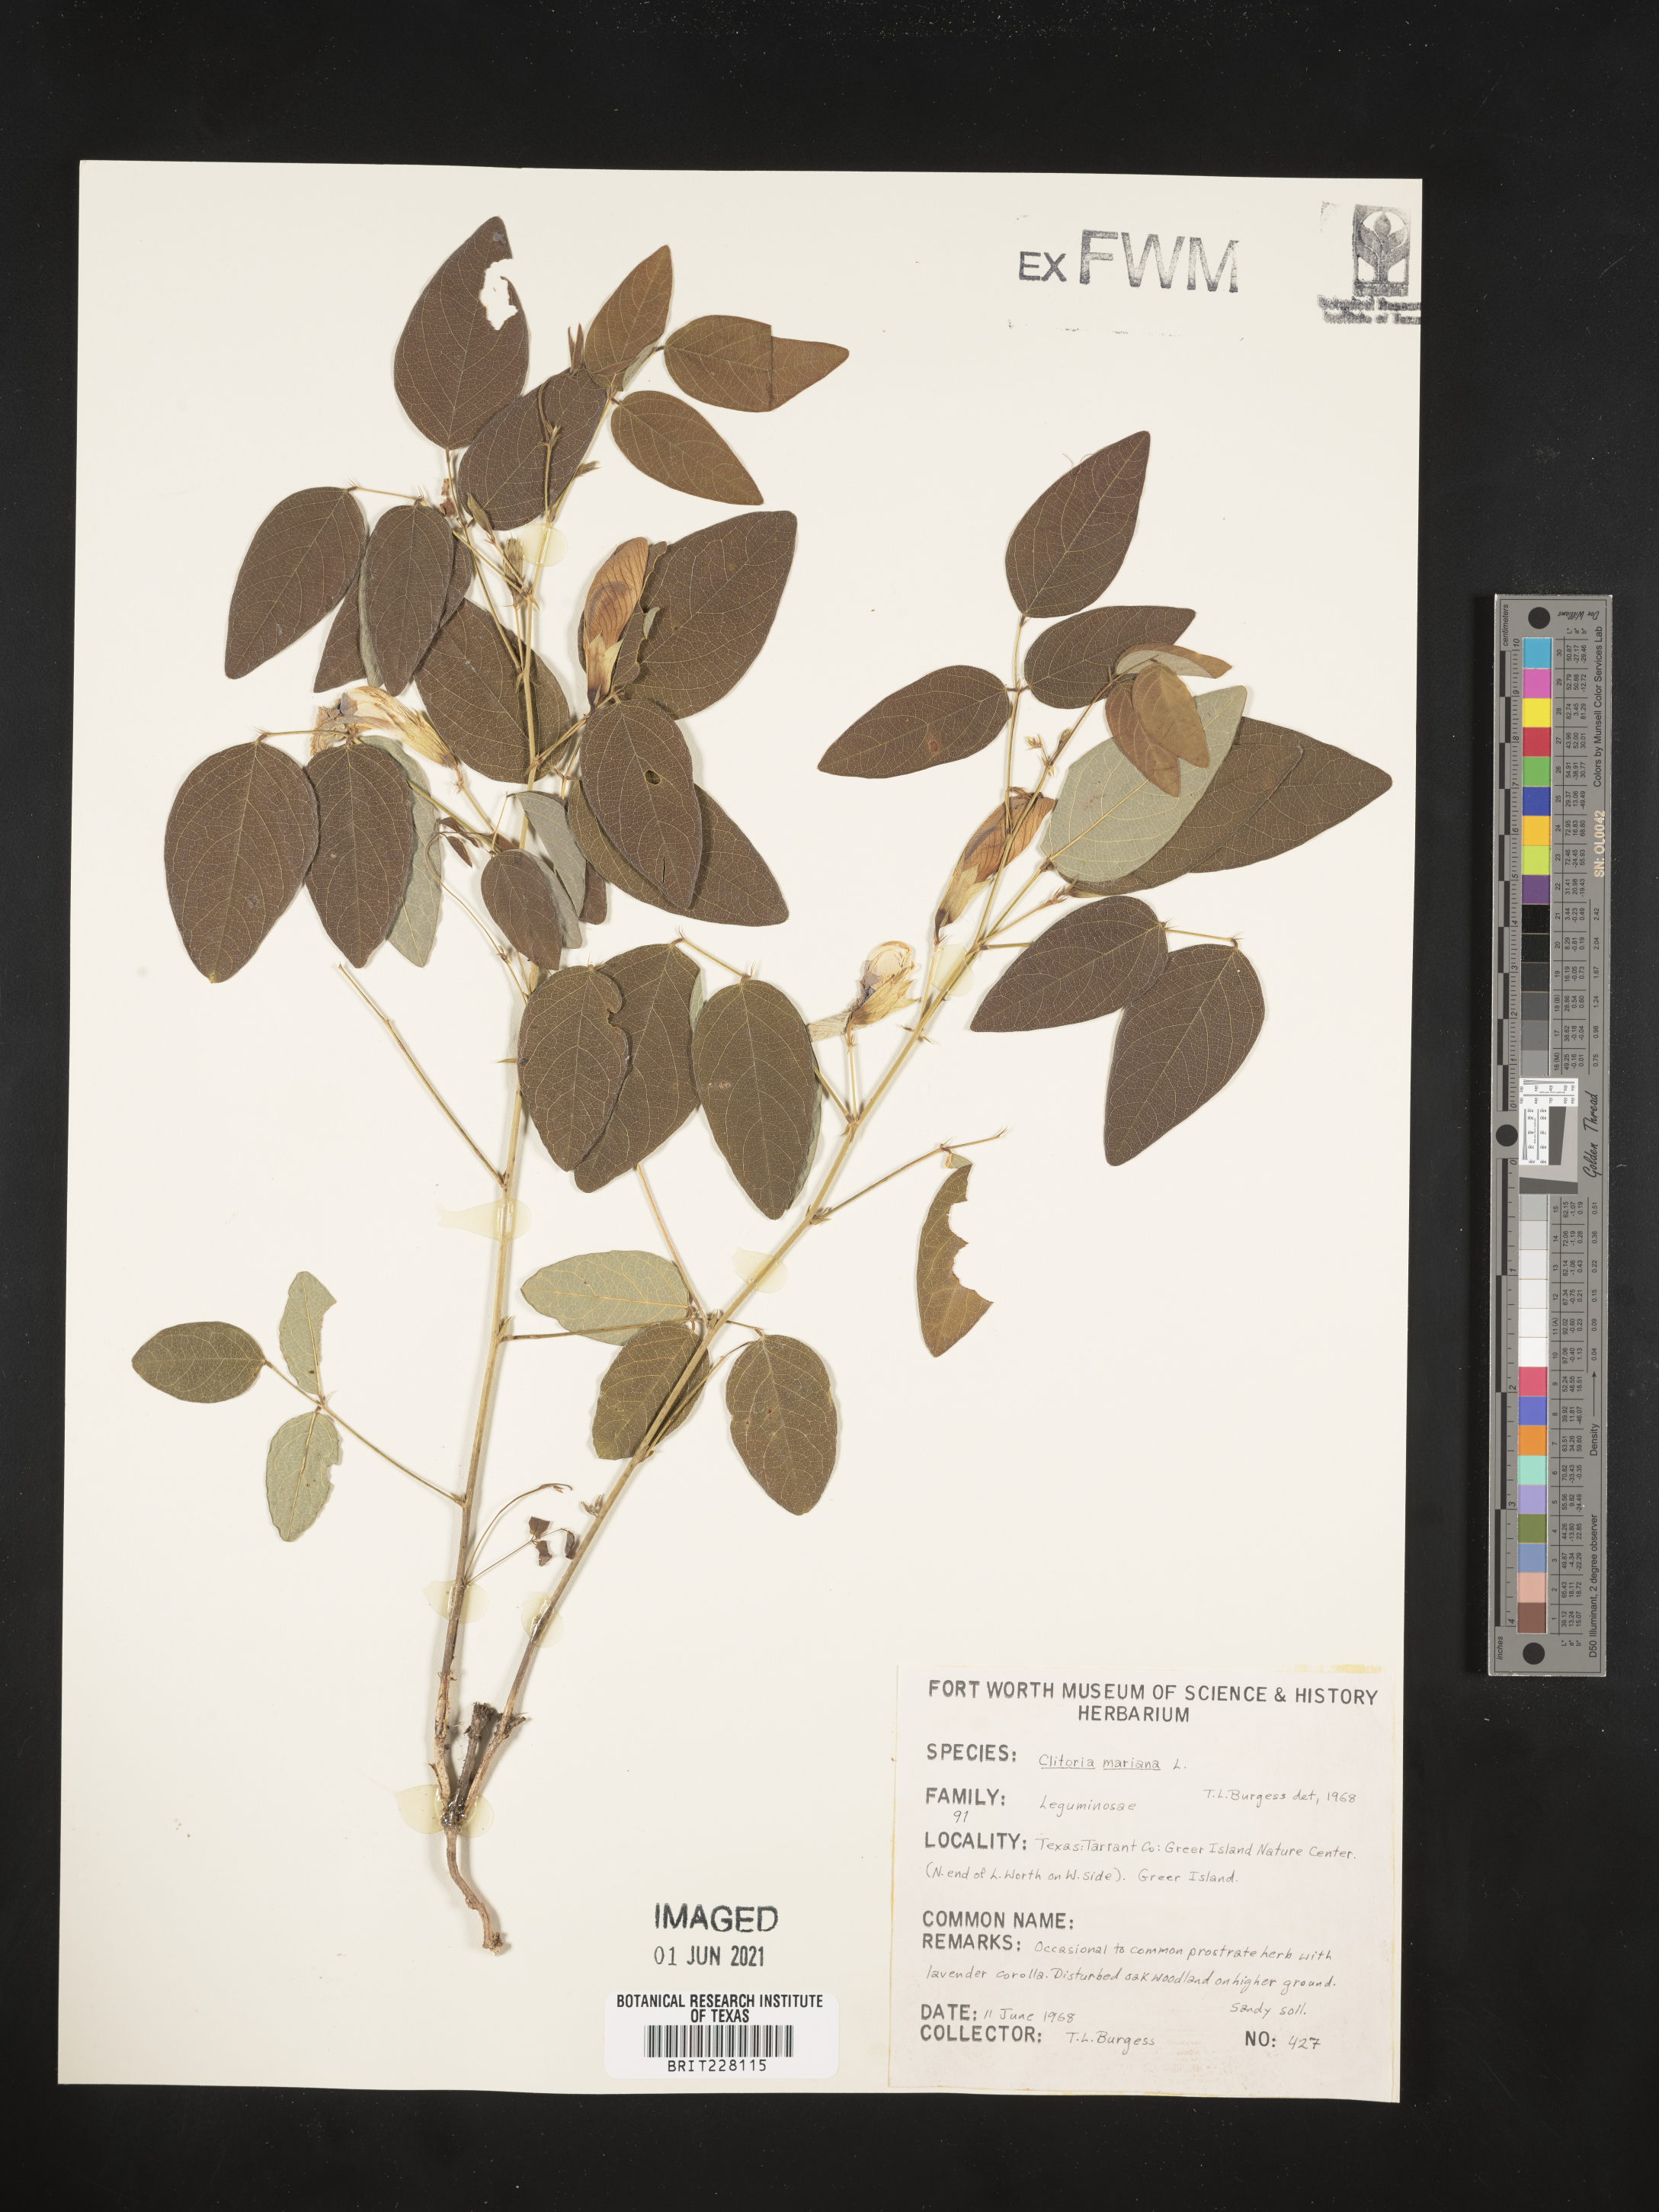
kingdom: Plantae
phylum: Tracheophyta
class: Magnoliopsida
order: Fabales
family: Fabaceae
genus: Clitoria
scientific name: Clitoria mariana
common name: Butterfly-pea
